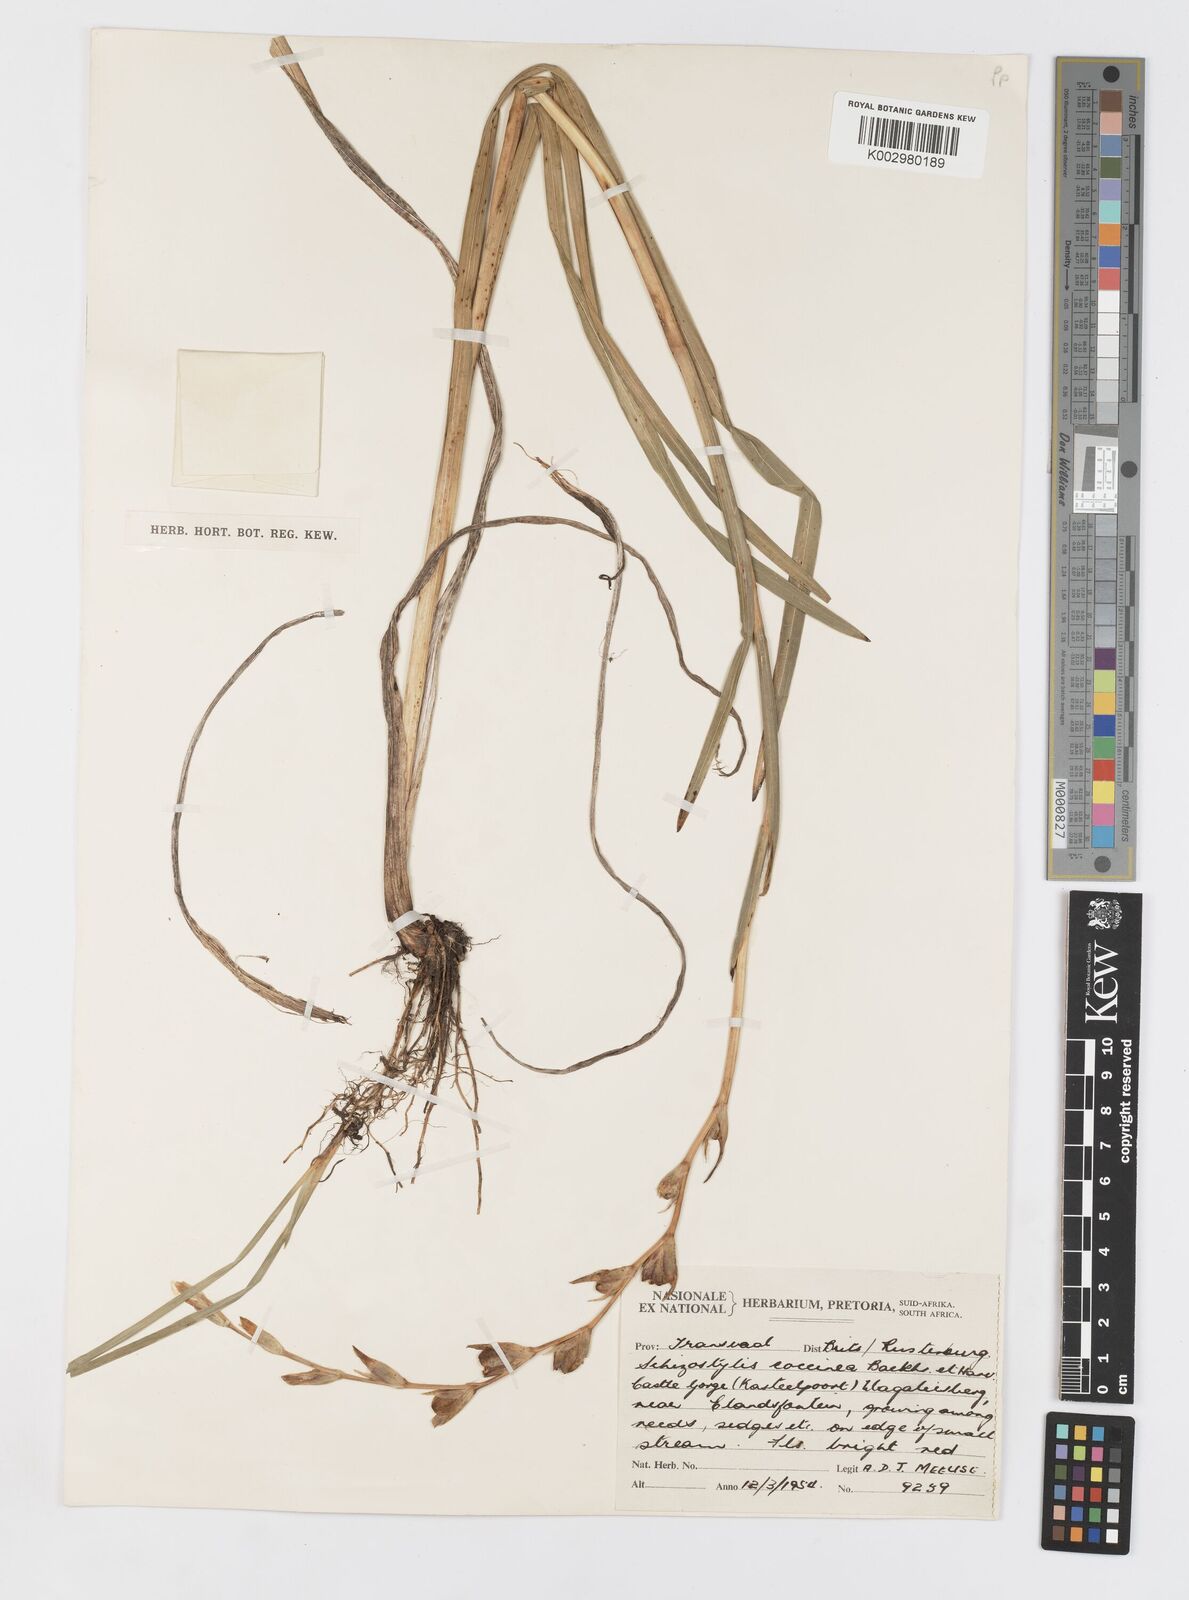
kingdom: Plantae
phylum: Tracheophyta
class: Liliopsida
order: Asparagales
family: Iridaceae
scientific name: Iridaceae
